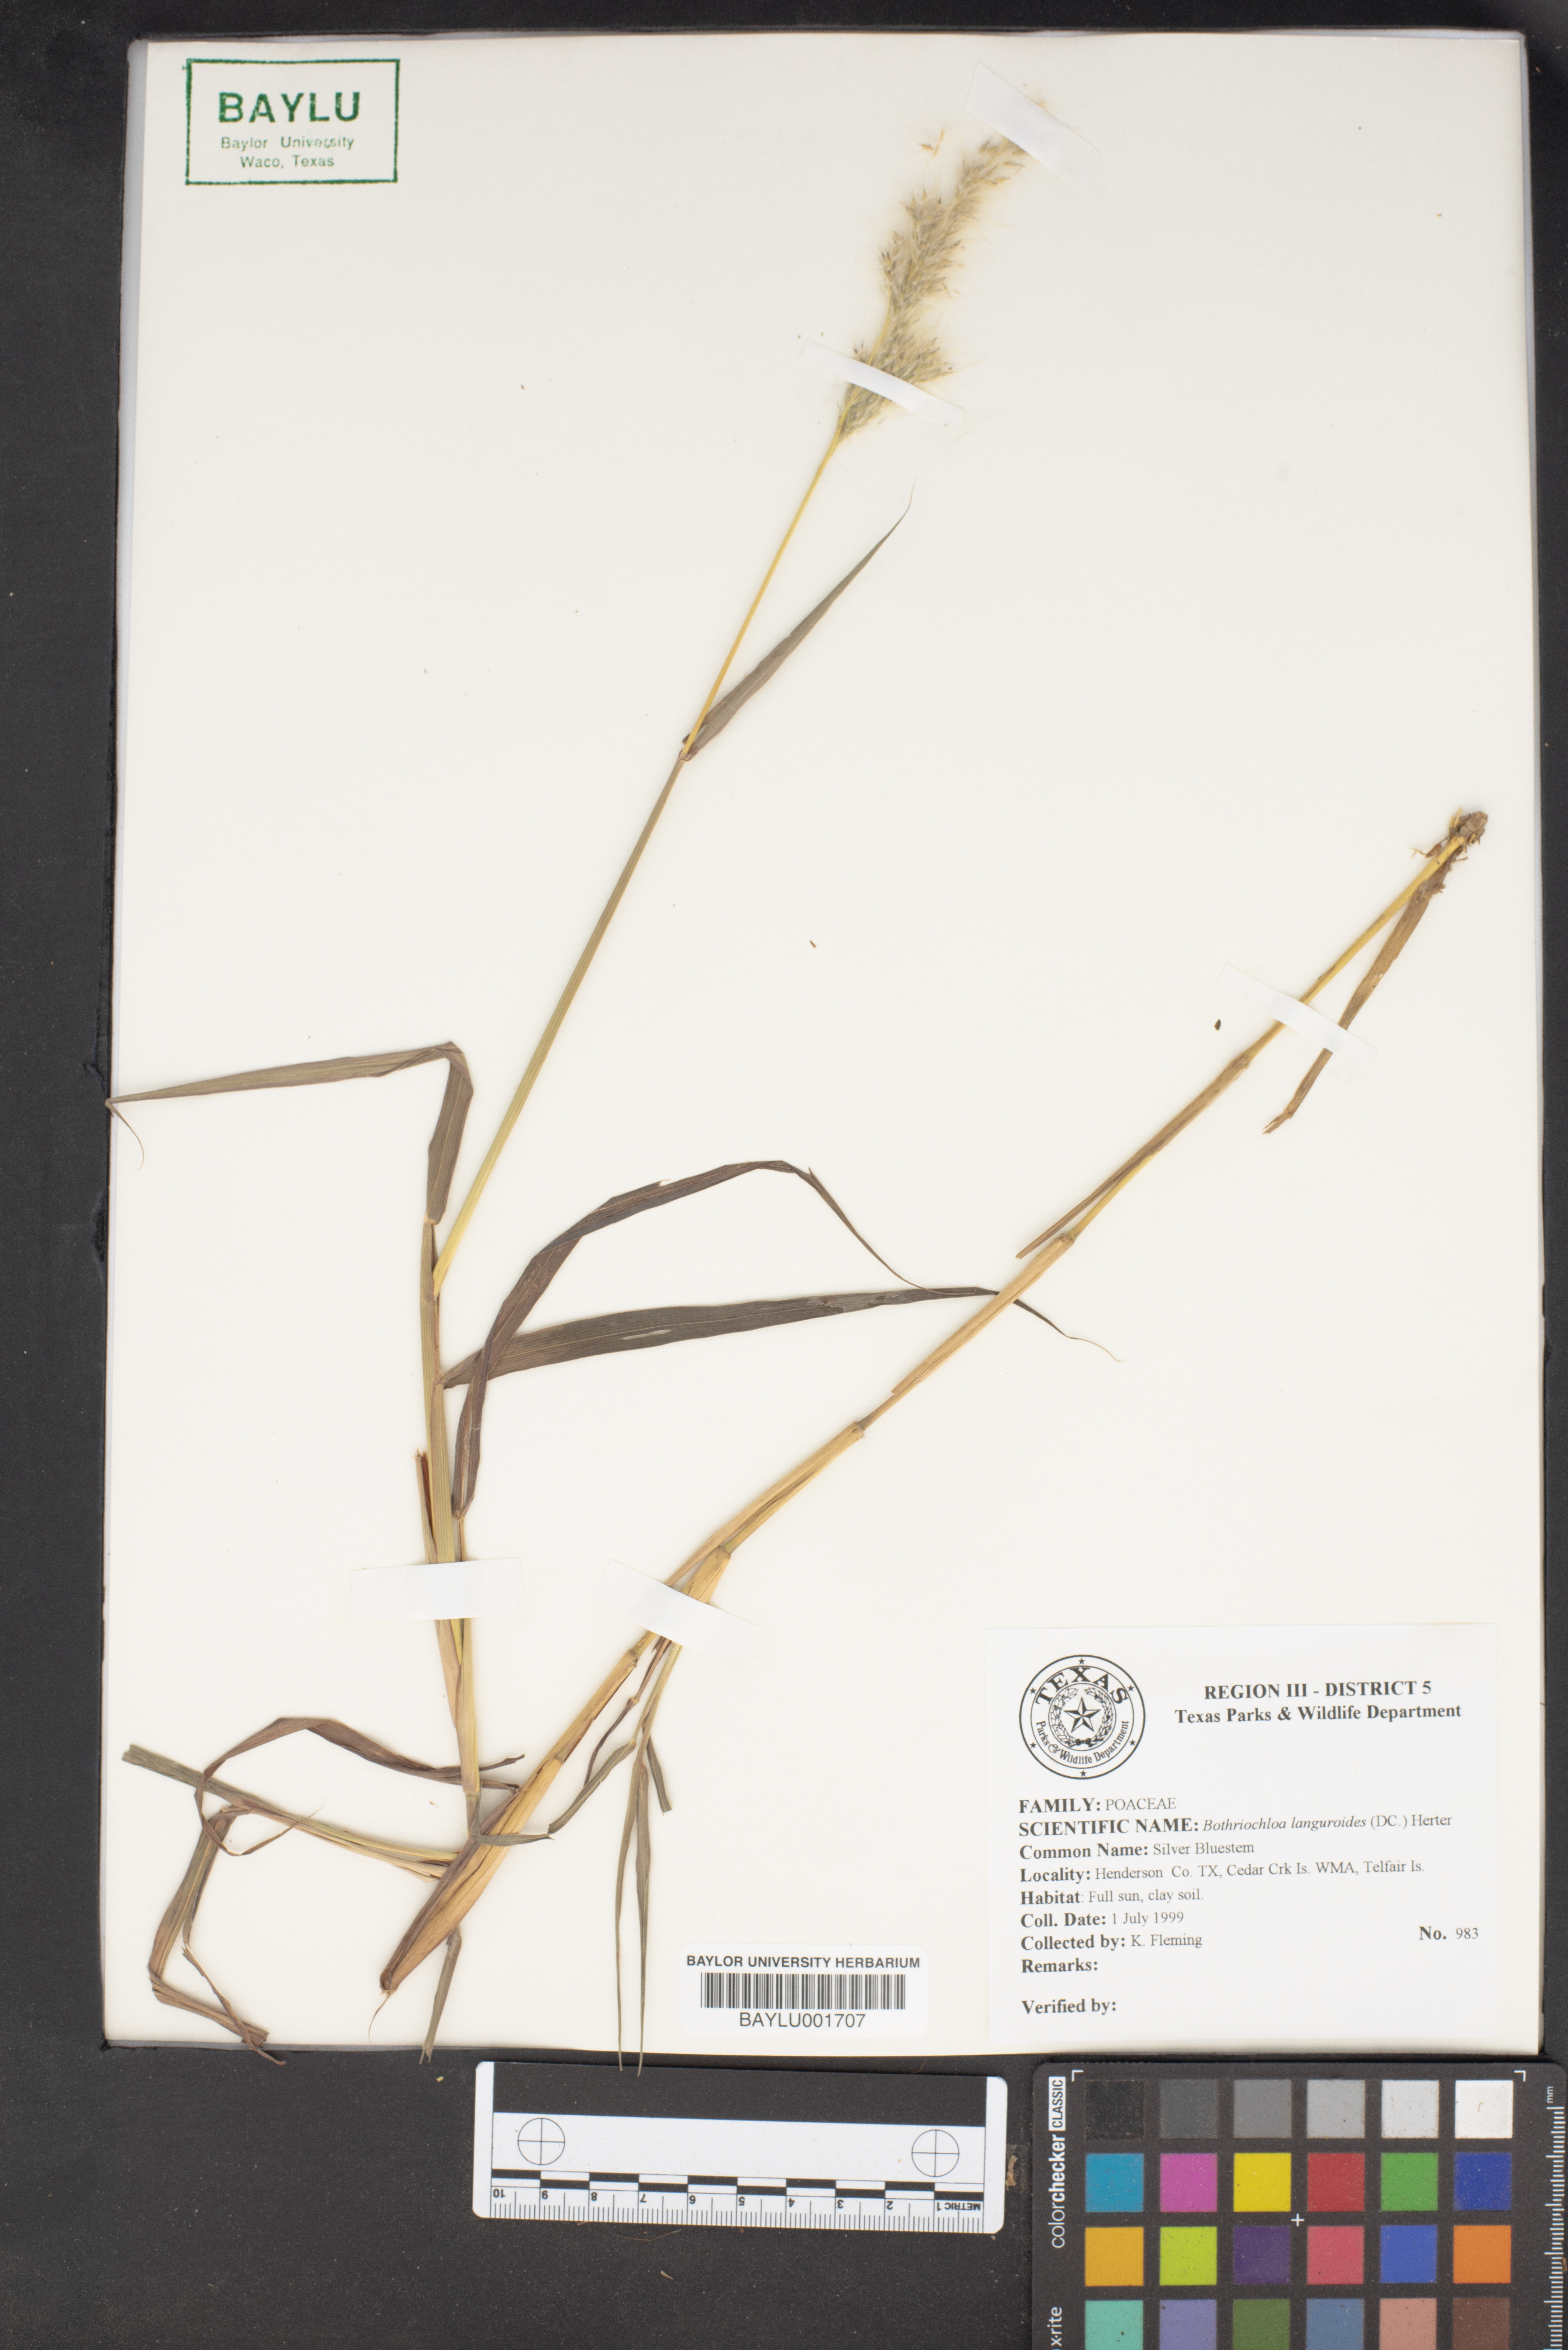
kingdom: Plantae
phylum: Tracheophyta
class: Liliopsida
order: Poales
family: Poaceae
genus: Bothriochloa
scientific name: Bothriochloa laguroides
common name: Silver bluestem
